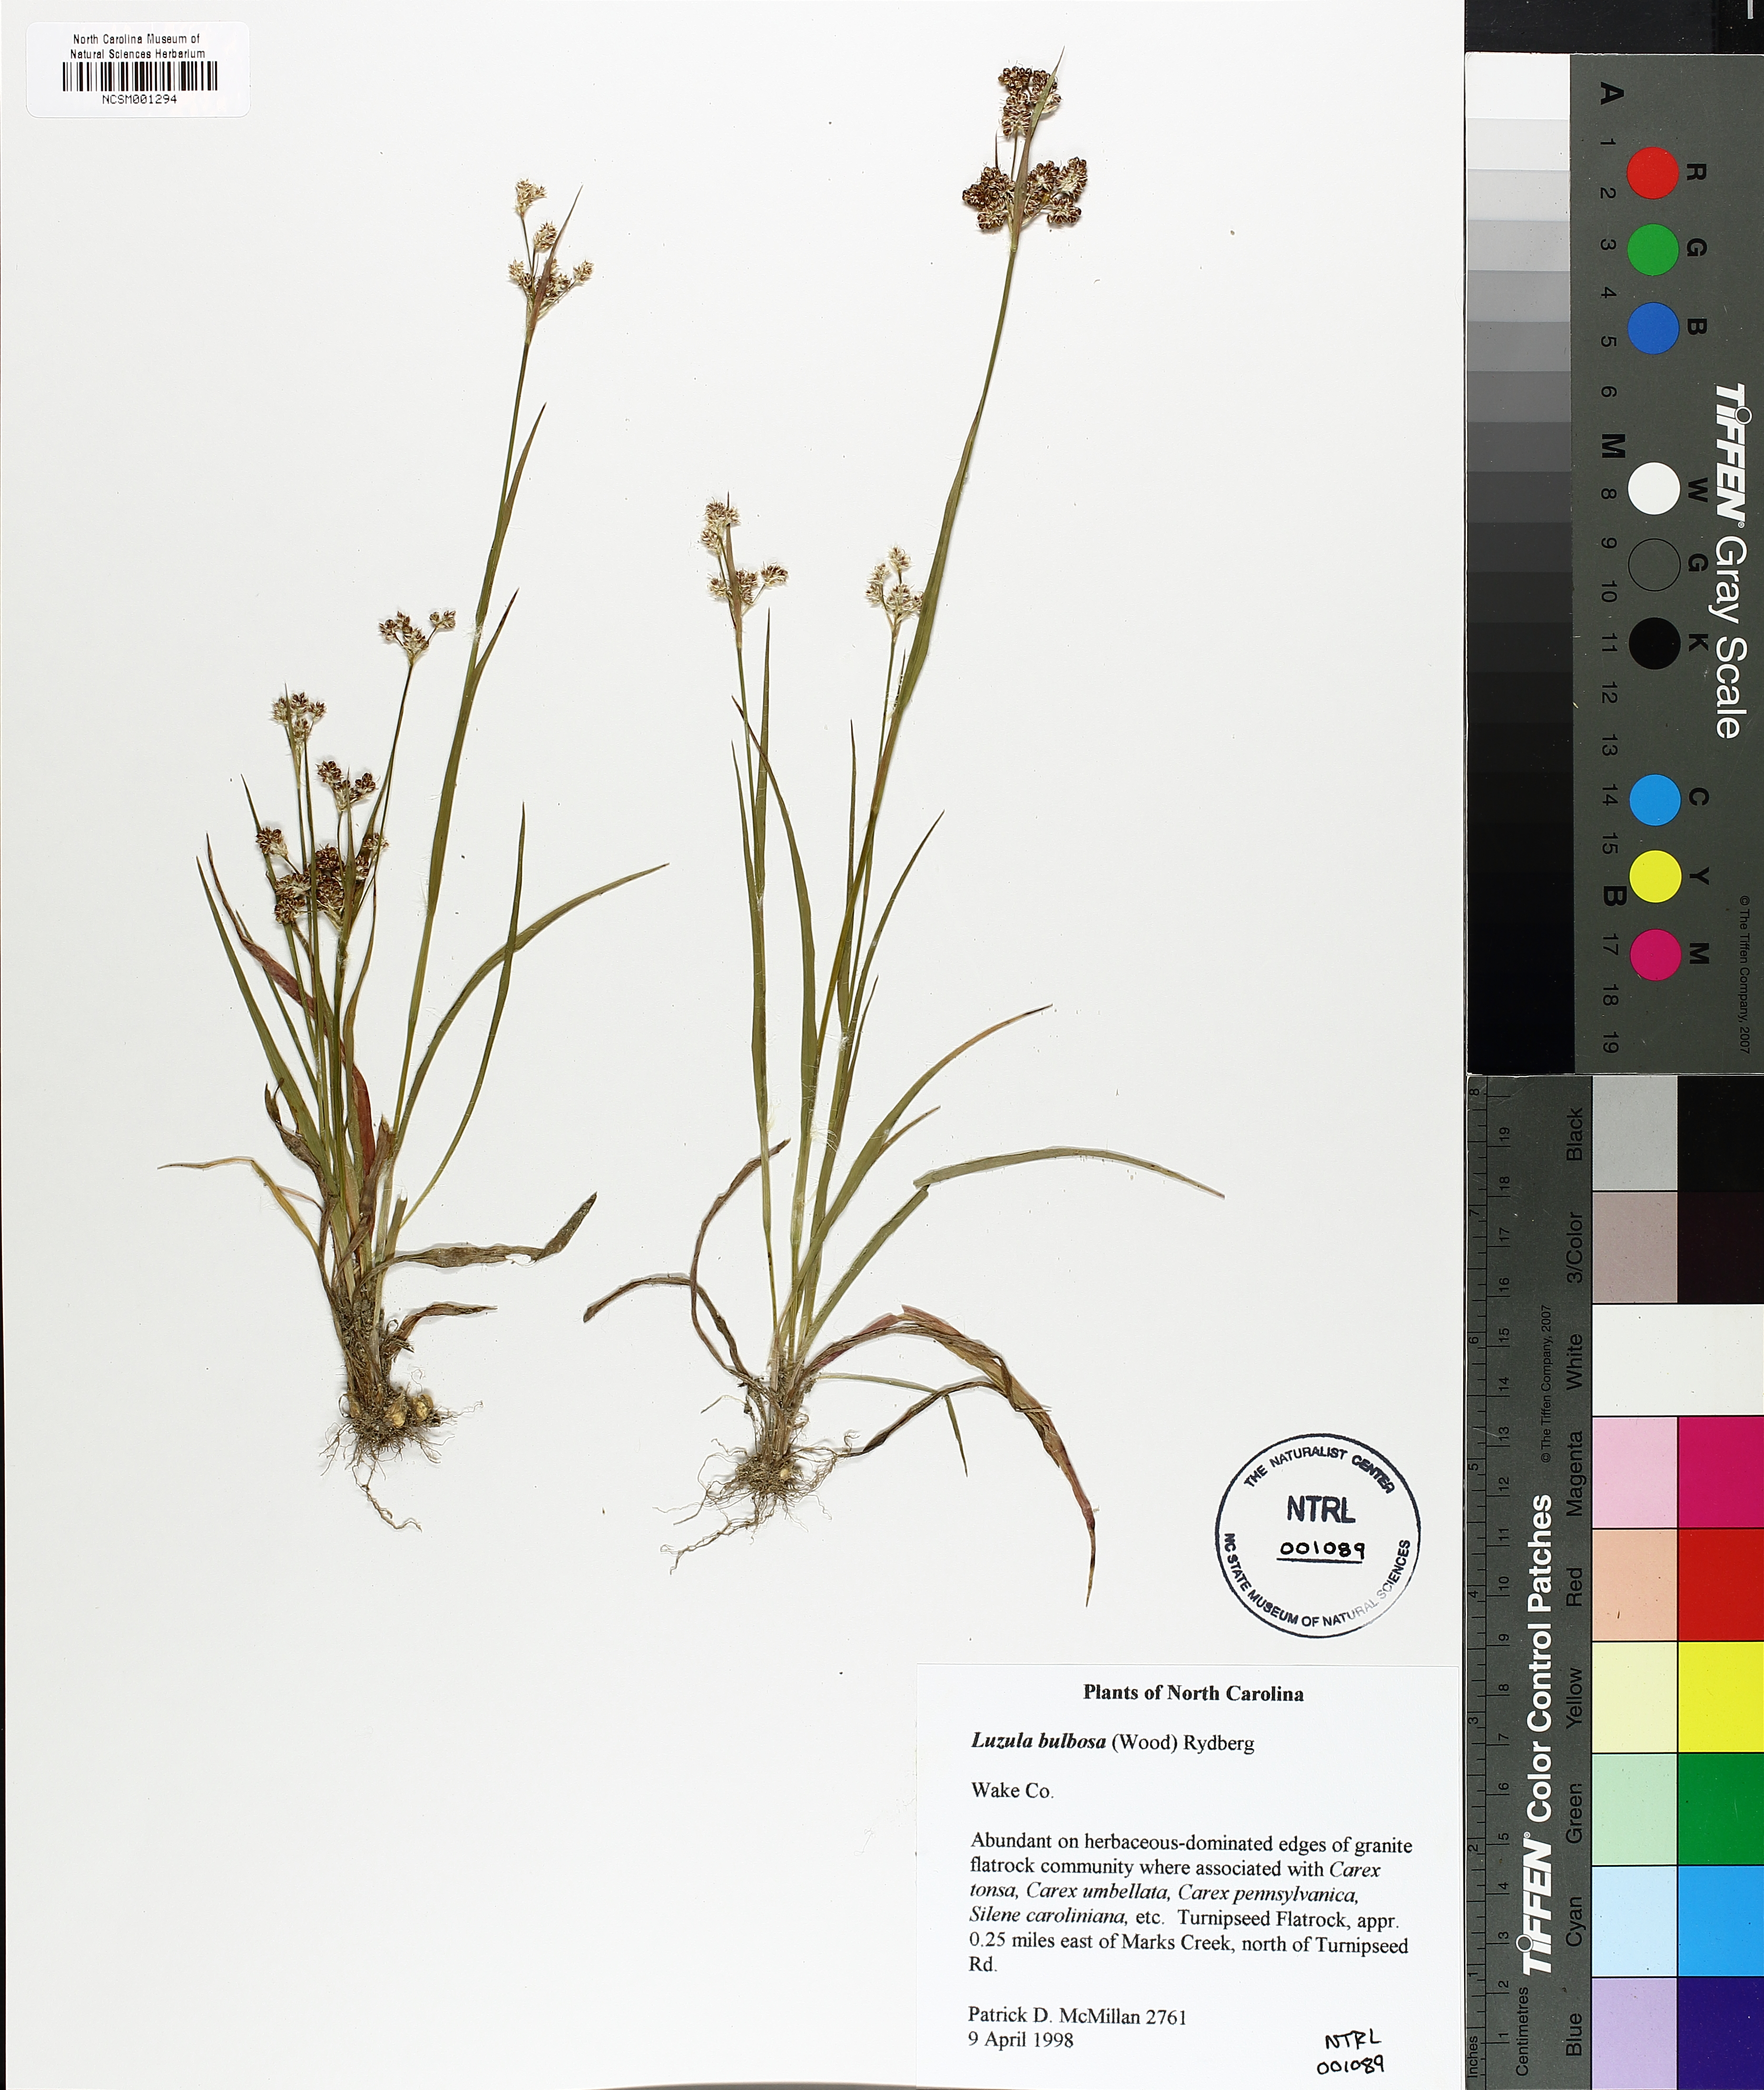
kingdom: Plantae
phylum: Tracheophyta
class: Liliopsida
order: Poales
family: Juncaceae
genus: Luzula
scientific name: Luzula bulbosa
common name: Bulbous woodrush
